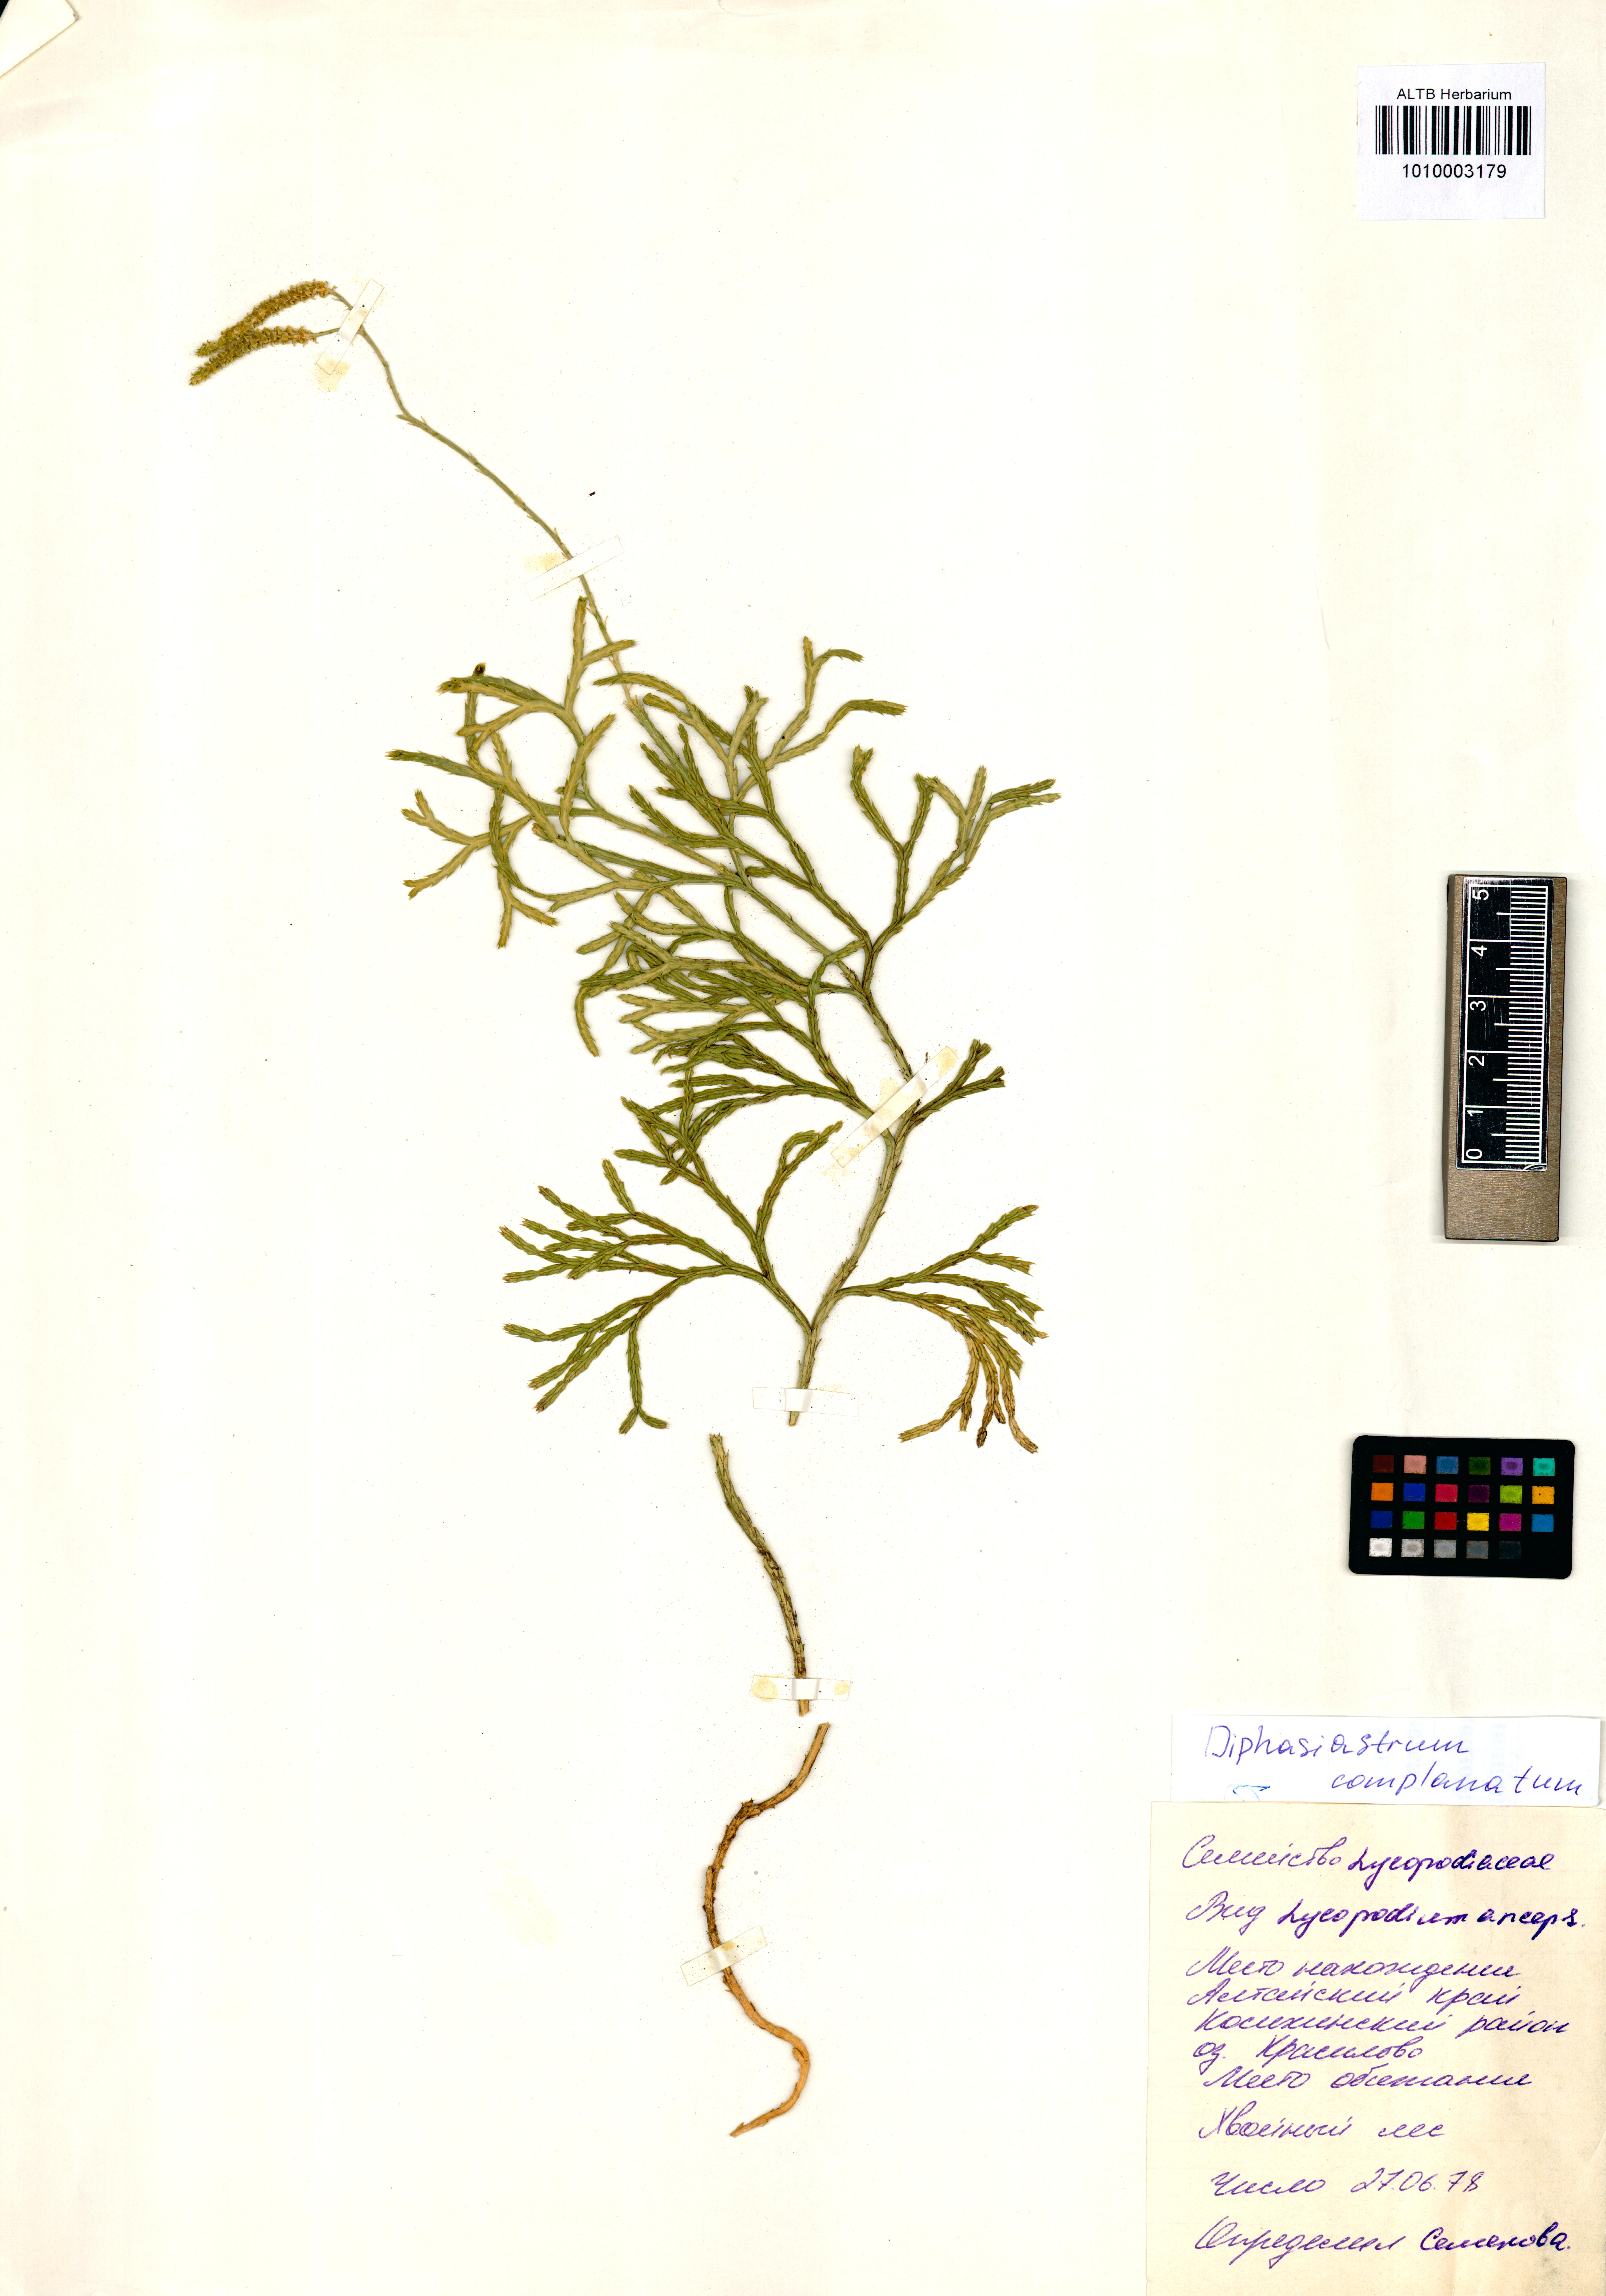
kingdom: Plantae
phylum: Tracheophyta
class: Lycopodiopsida
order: Lycopodiales
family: Lycopodiaceae
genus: Diphasiastrum
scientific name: Diphasiastrum complanatum
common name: Northern running-pine
